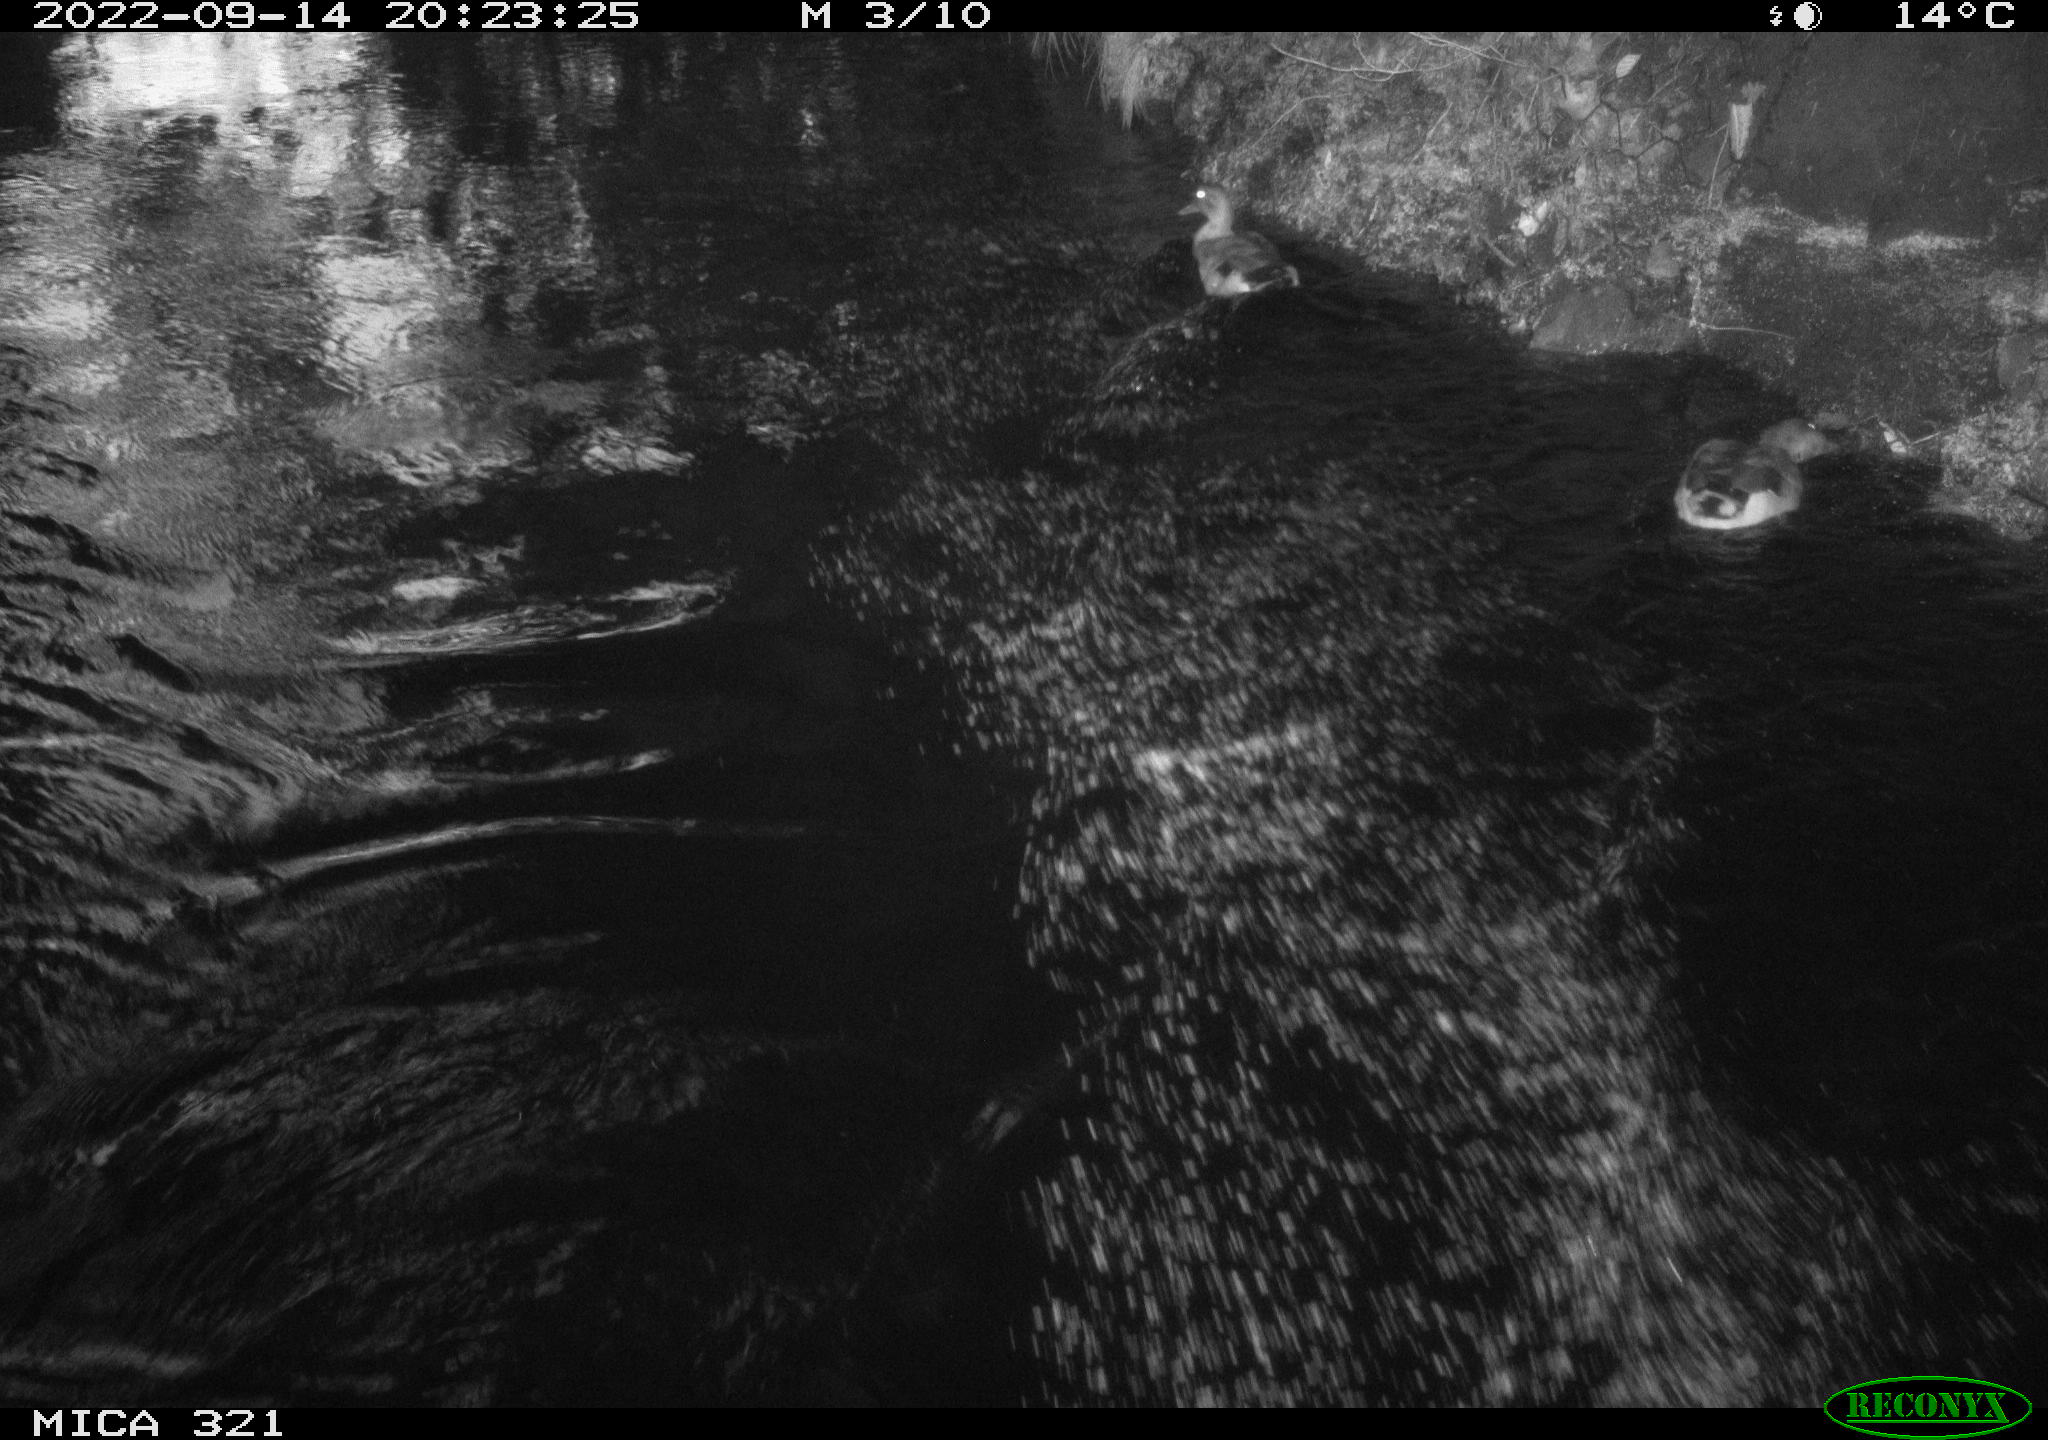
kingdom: Animalia
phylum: Chordata
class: Aves
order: Anseriformes
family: Anatidae
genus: Anas
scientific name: Anas
